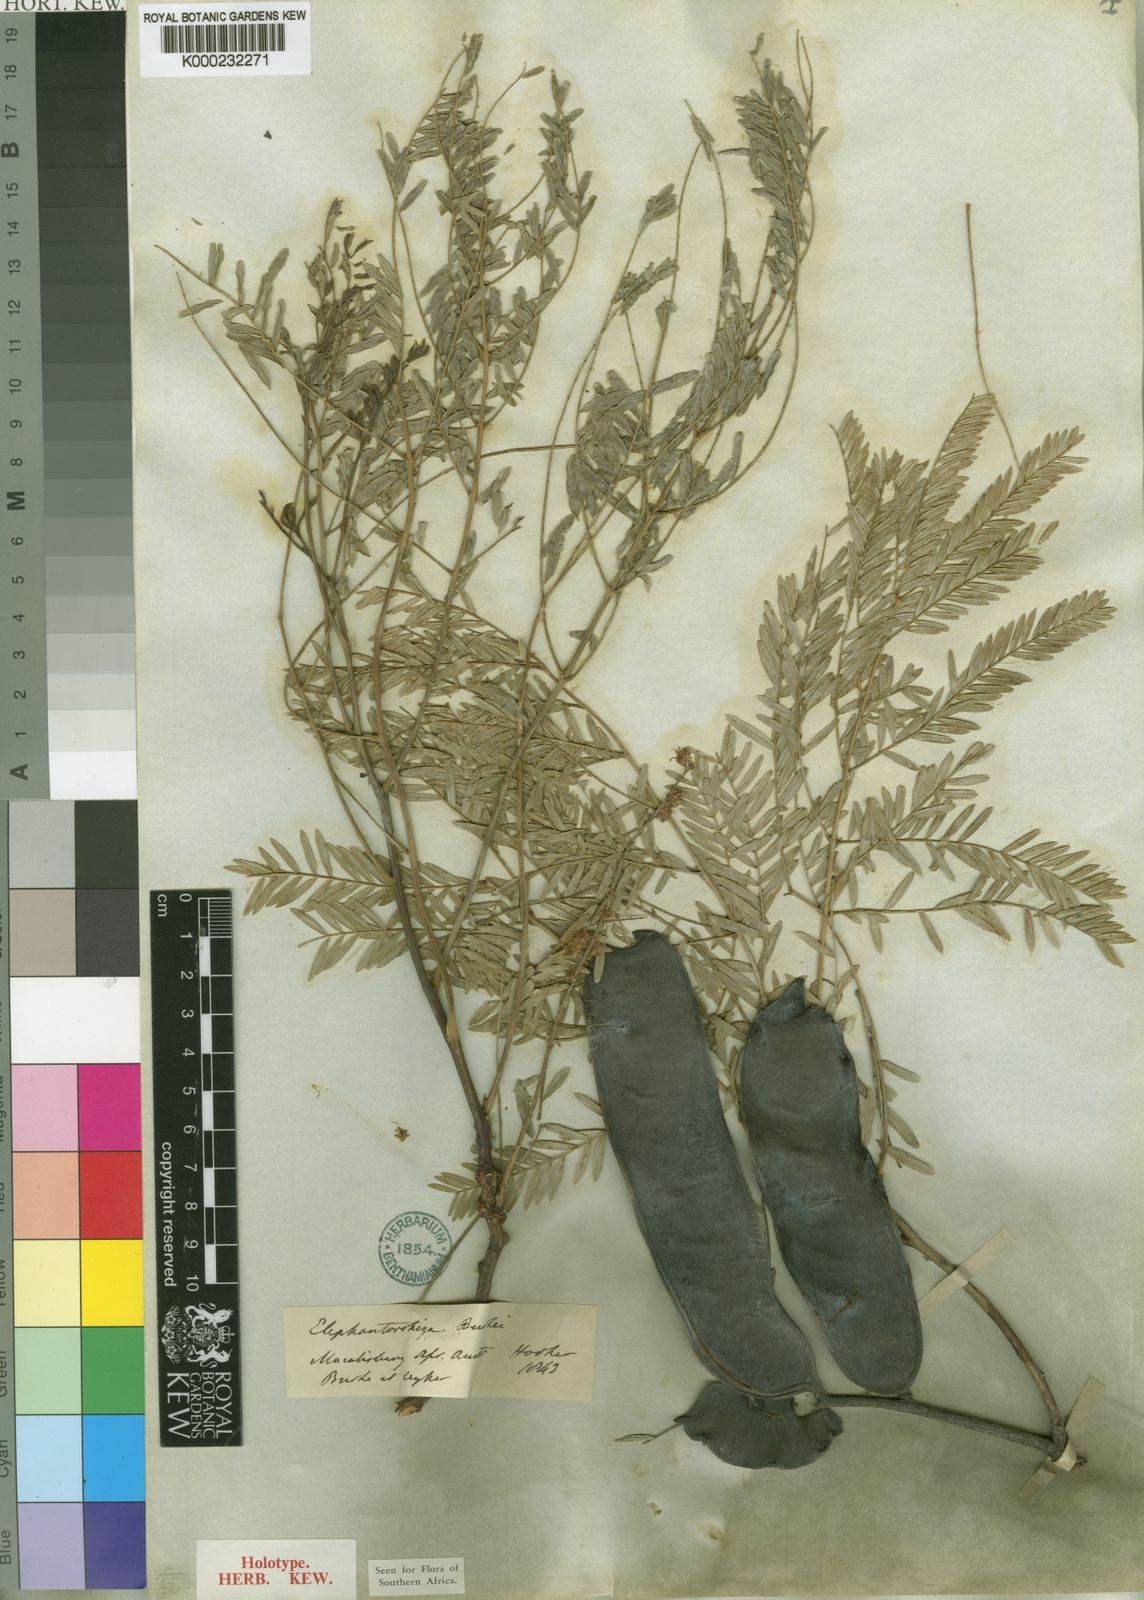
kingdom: Plantae
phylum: Tracheophyta
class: Magnoliopsida
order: Fabales
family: Fabaceae
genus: Elephantorrhiza
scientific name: Elephantorrhiza burkei
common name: Broad-pod elephant-root
